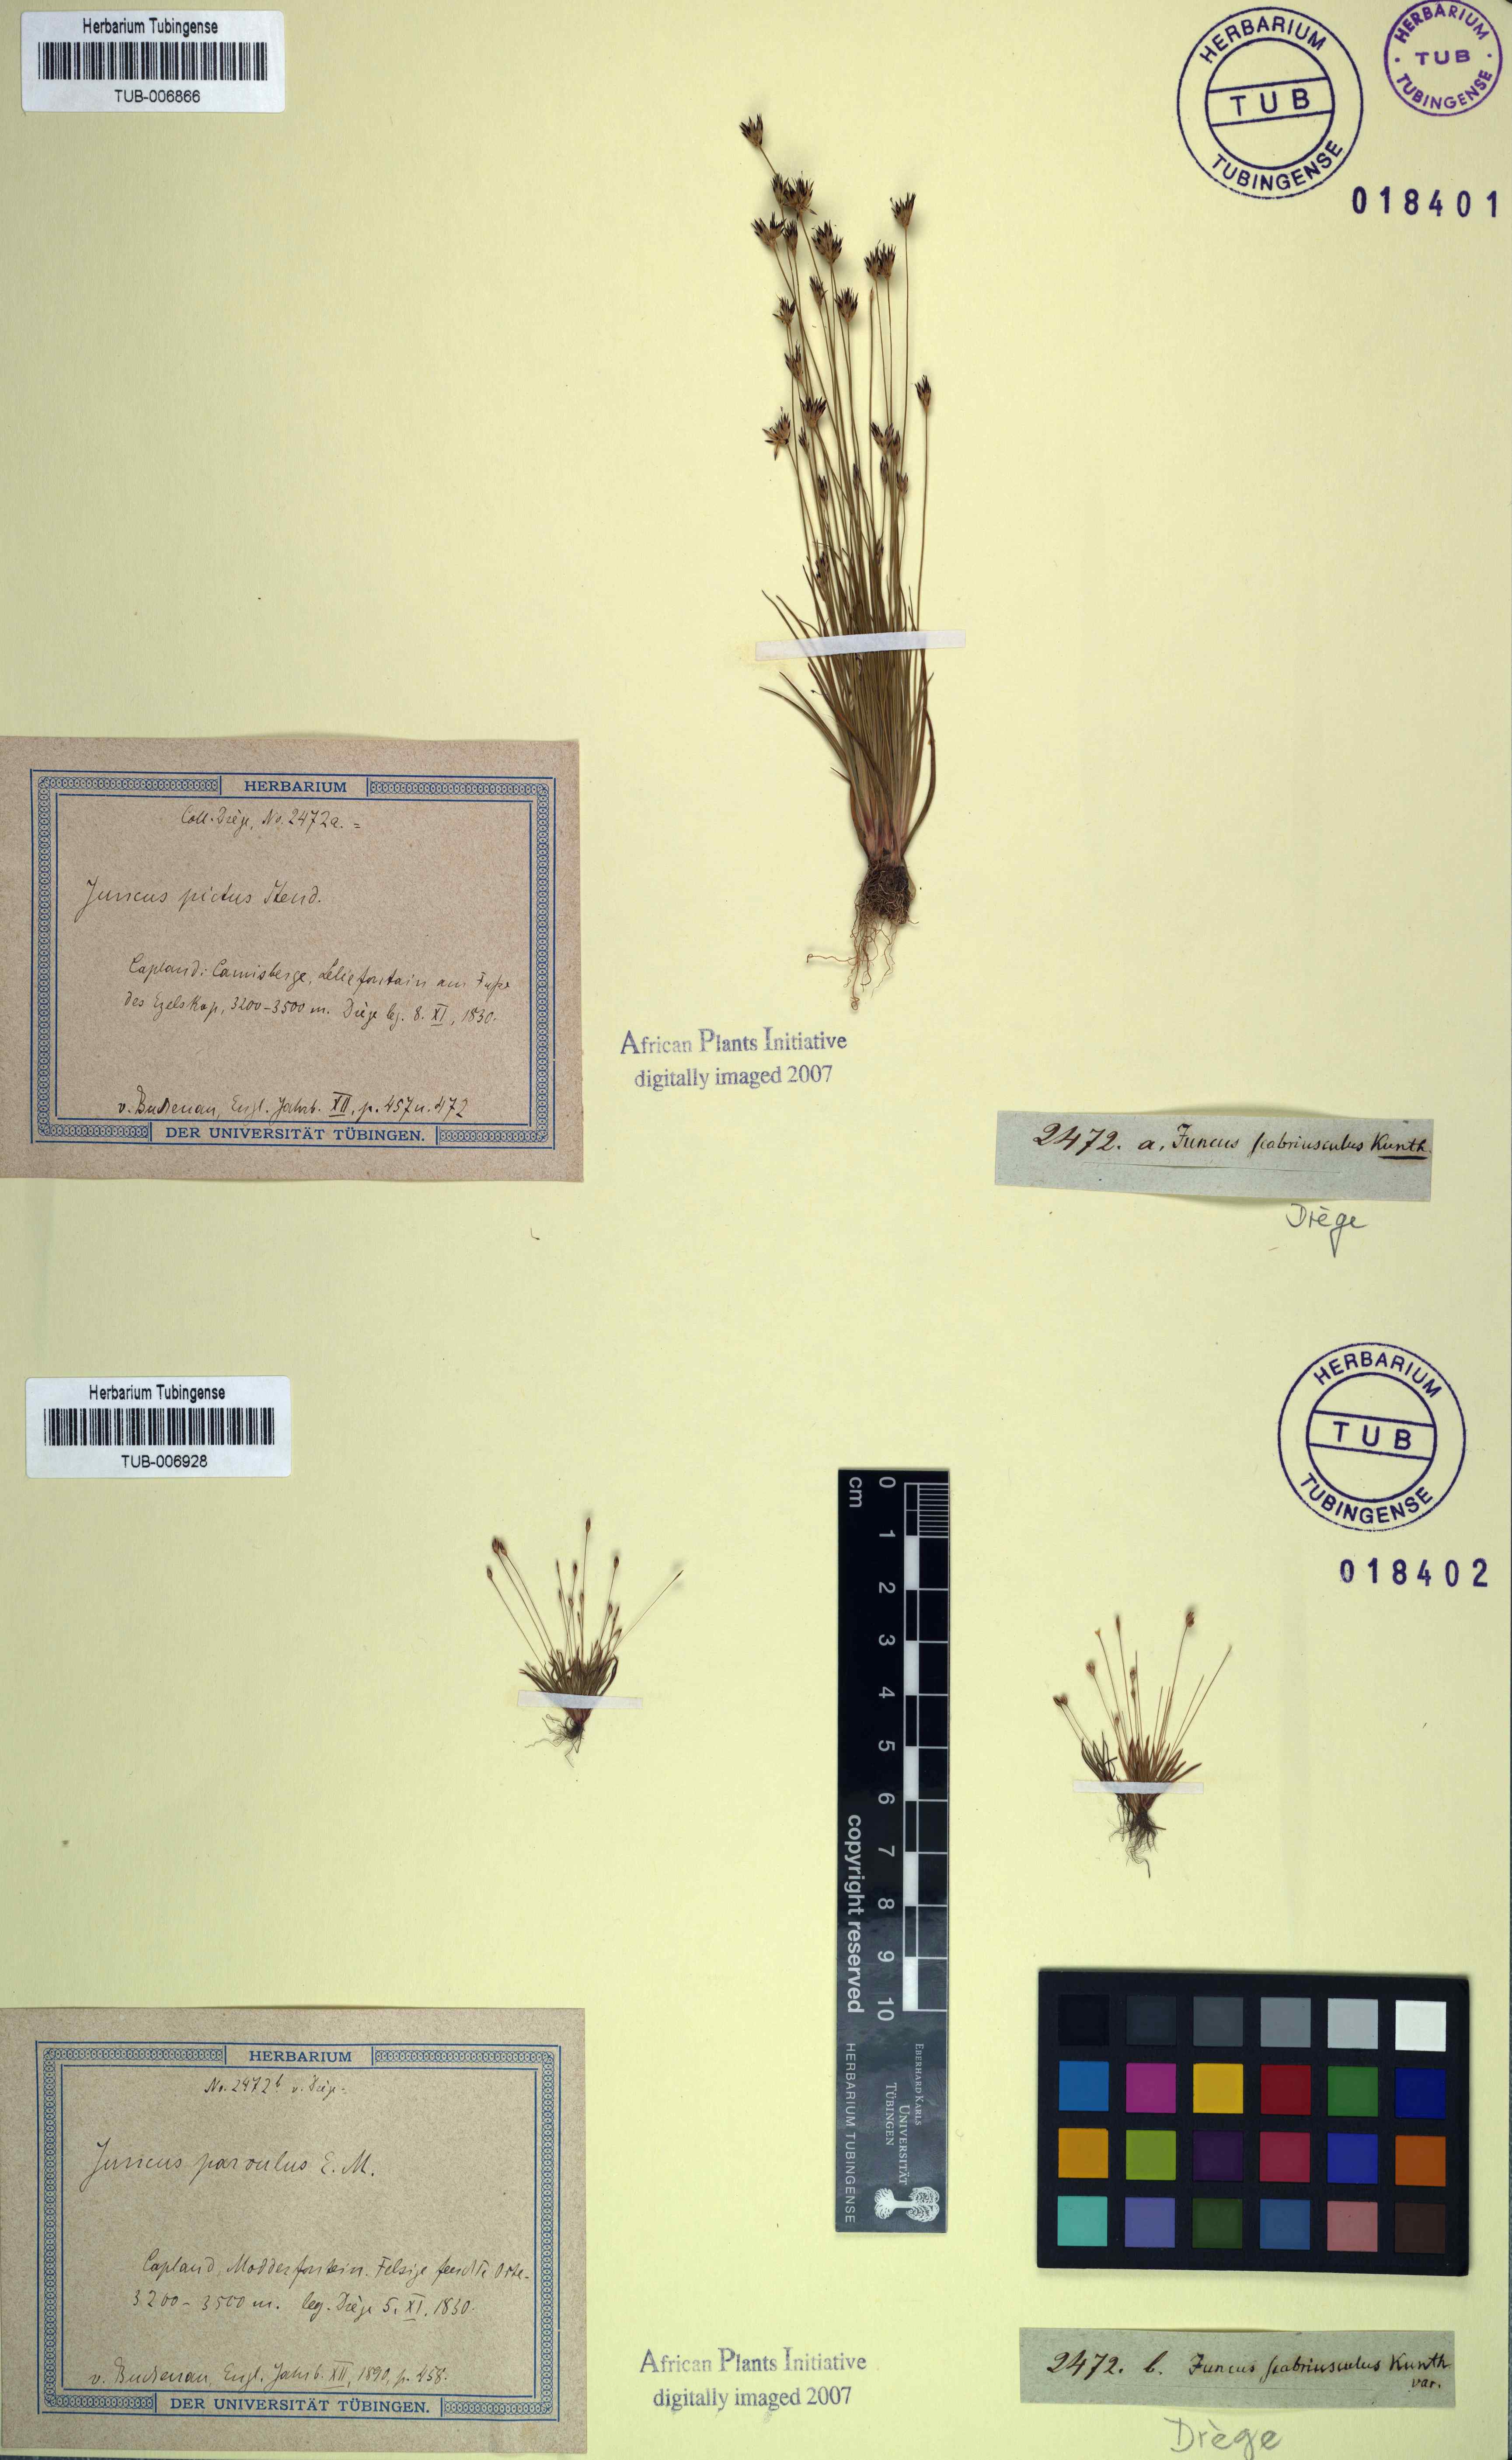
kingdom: Plantae
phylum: Tracheophyta
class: Liliopsida
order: Poales
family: Juncaceae
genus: Juncus
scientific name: Juncus scabriusculus
